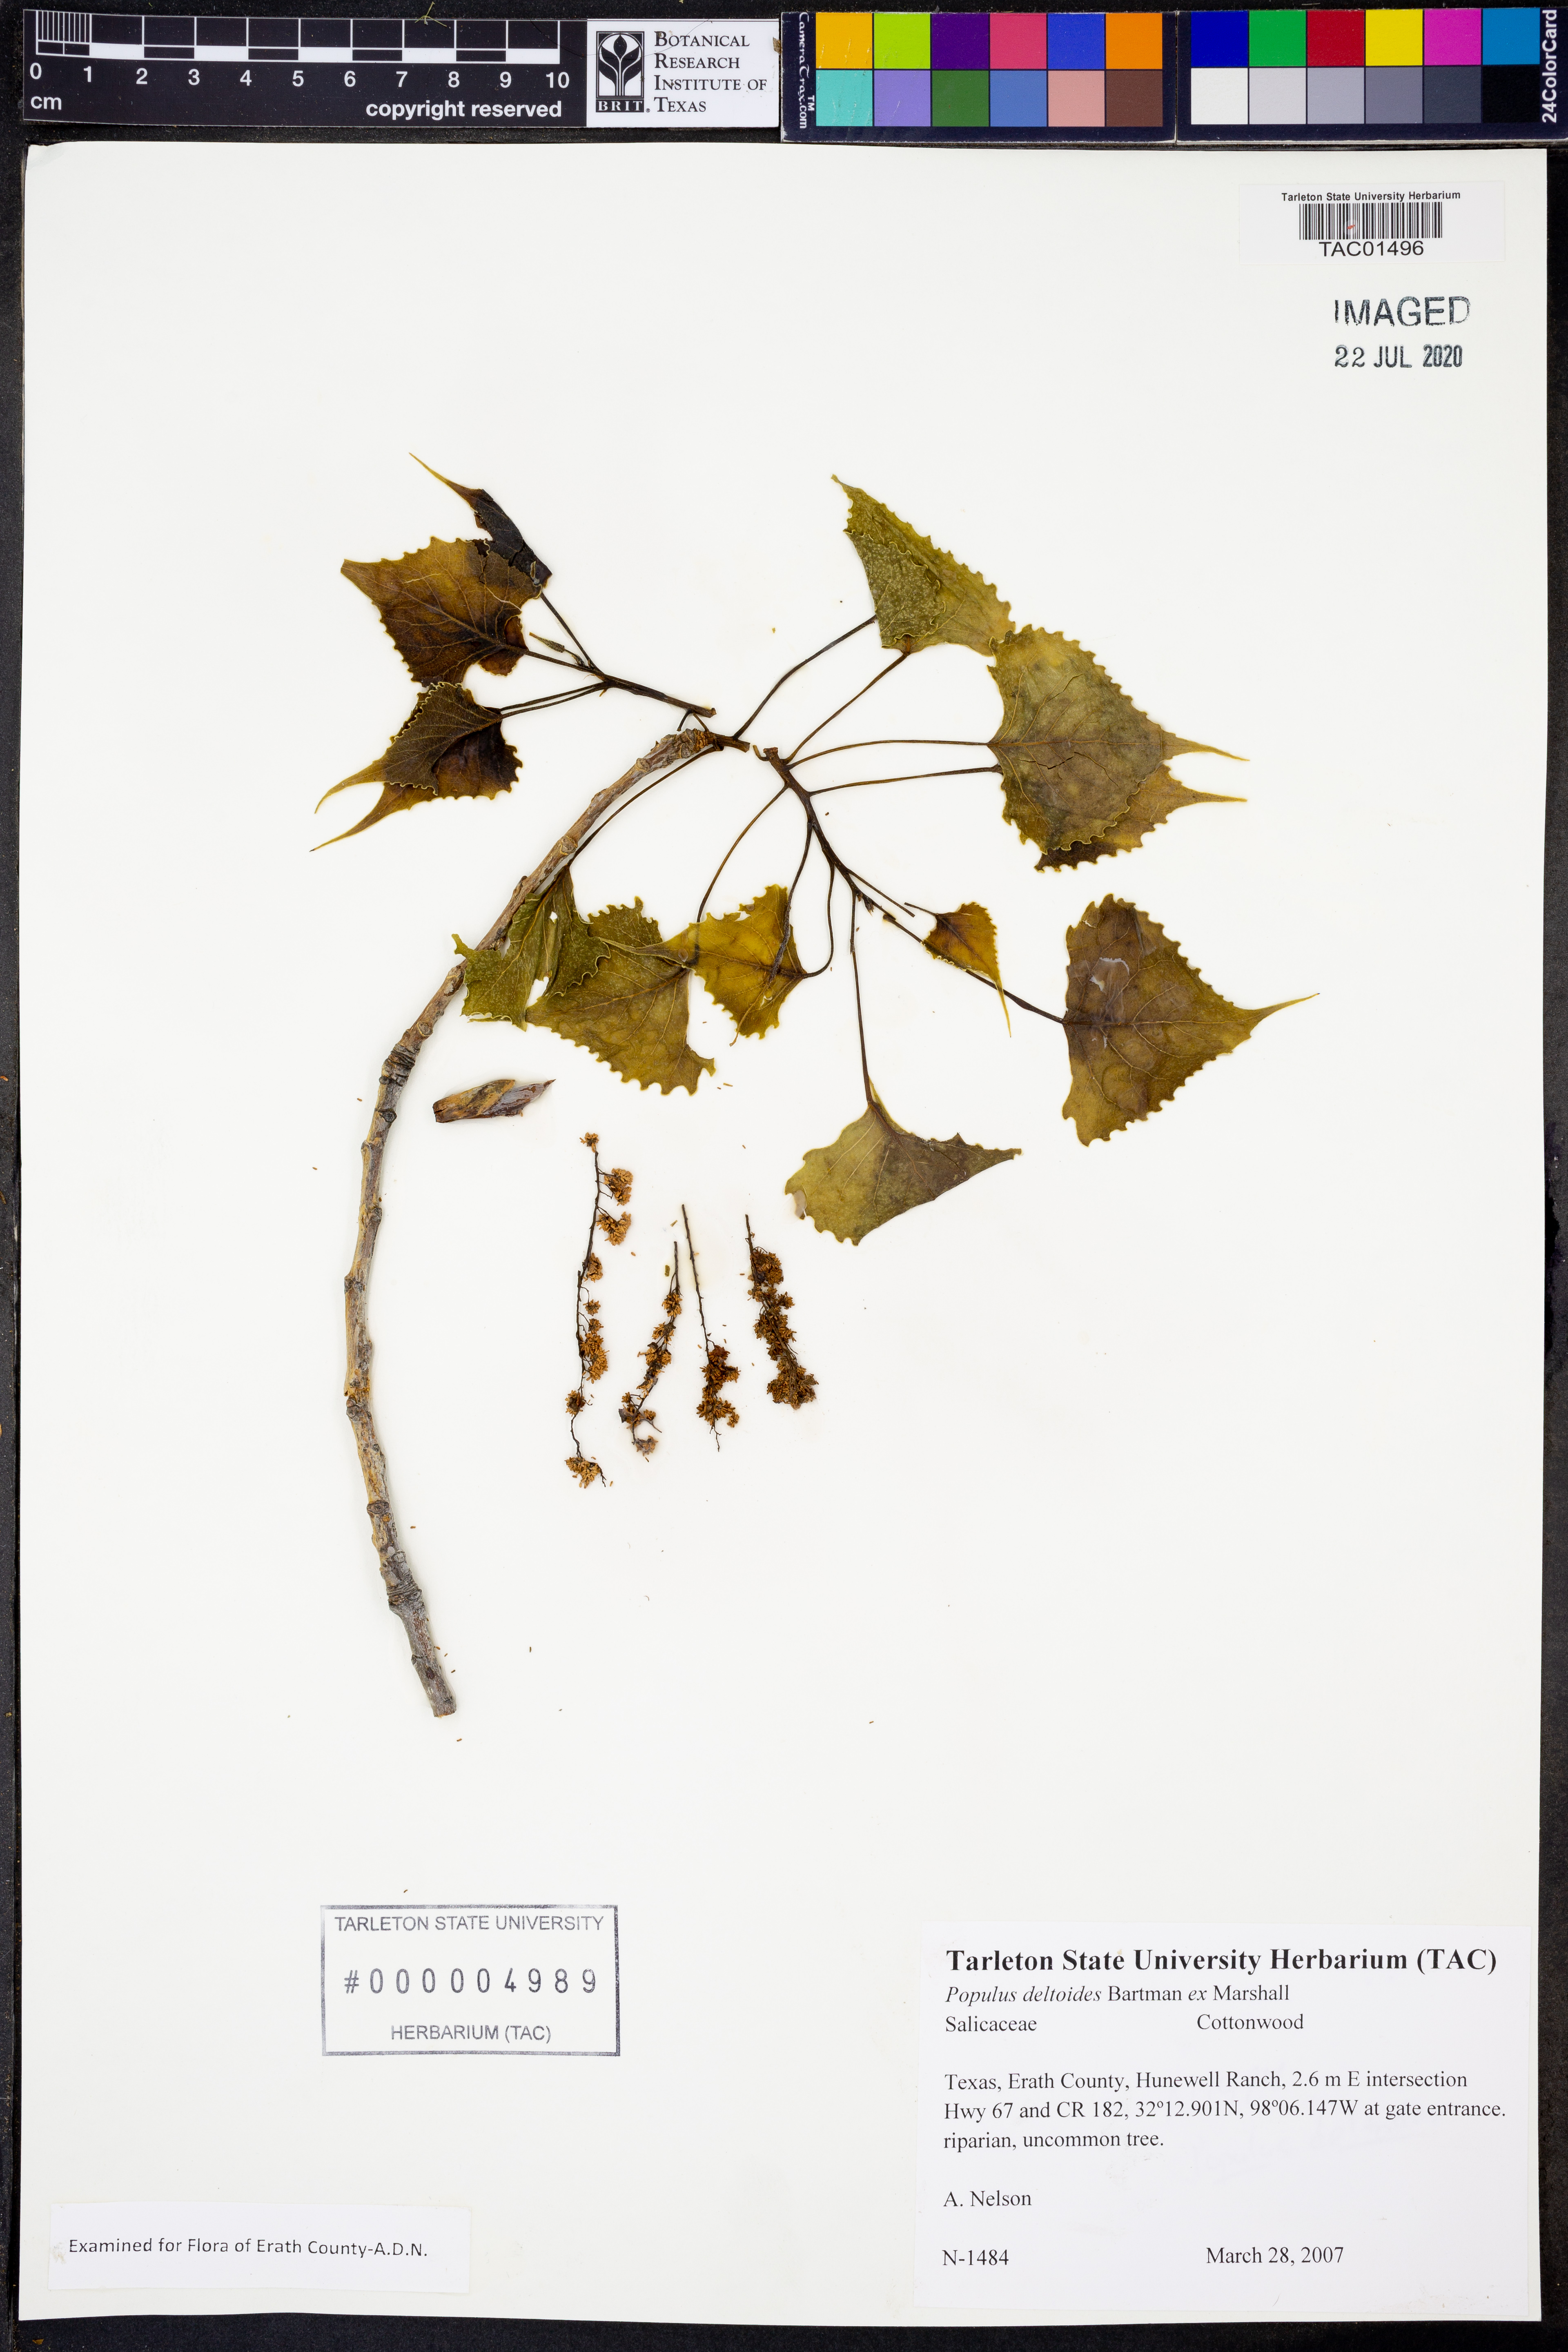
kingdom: Plantae
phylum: Tracheophyta
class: Magnoliopsida
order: Malpighiales
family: Salicaceae
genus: Populus
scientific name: Populus deltoides
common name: Eastern cottonwood
